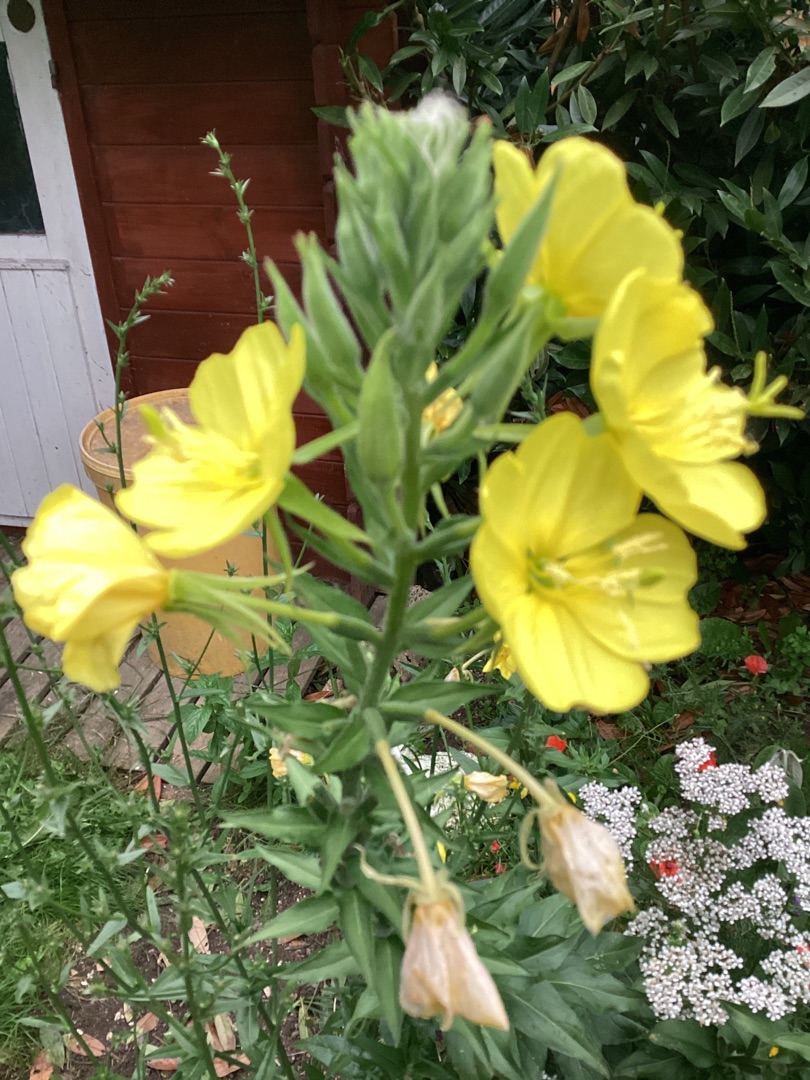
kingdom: Plantae
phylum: Tracheophyta
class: Magnoliopsida
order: Myrtales
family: Onagraceae
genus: Oenothera
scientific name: Oenothera
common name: Natlysslægten
